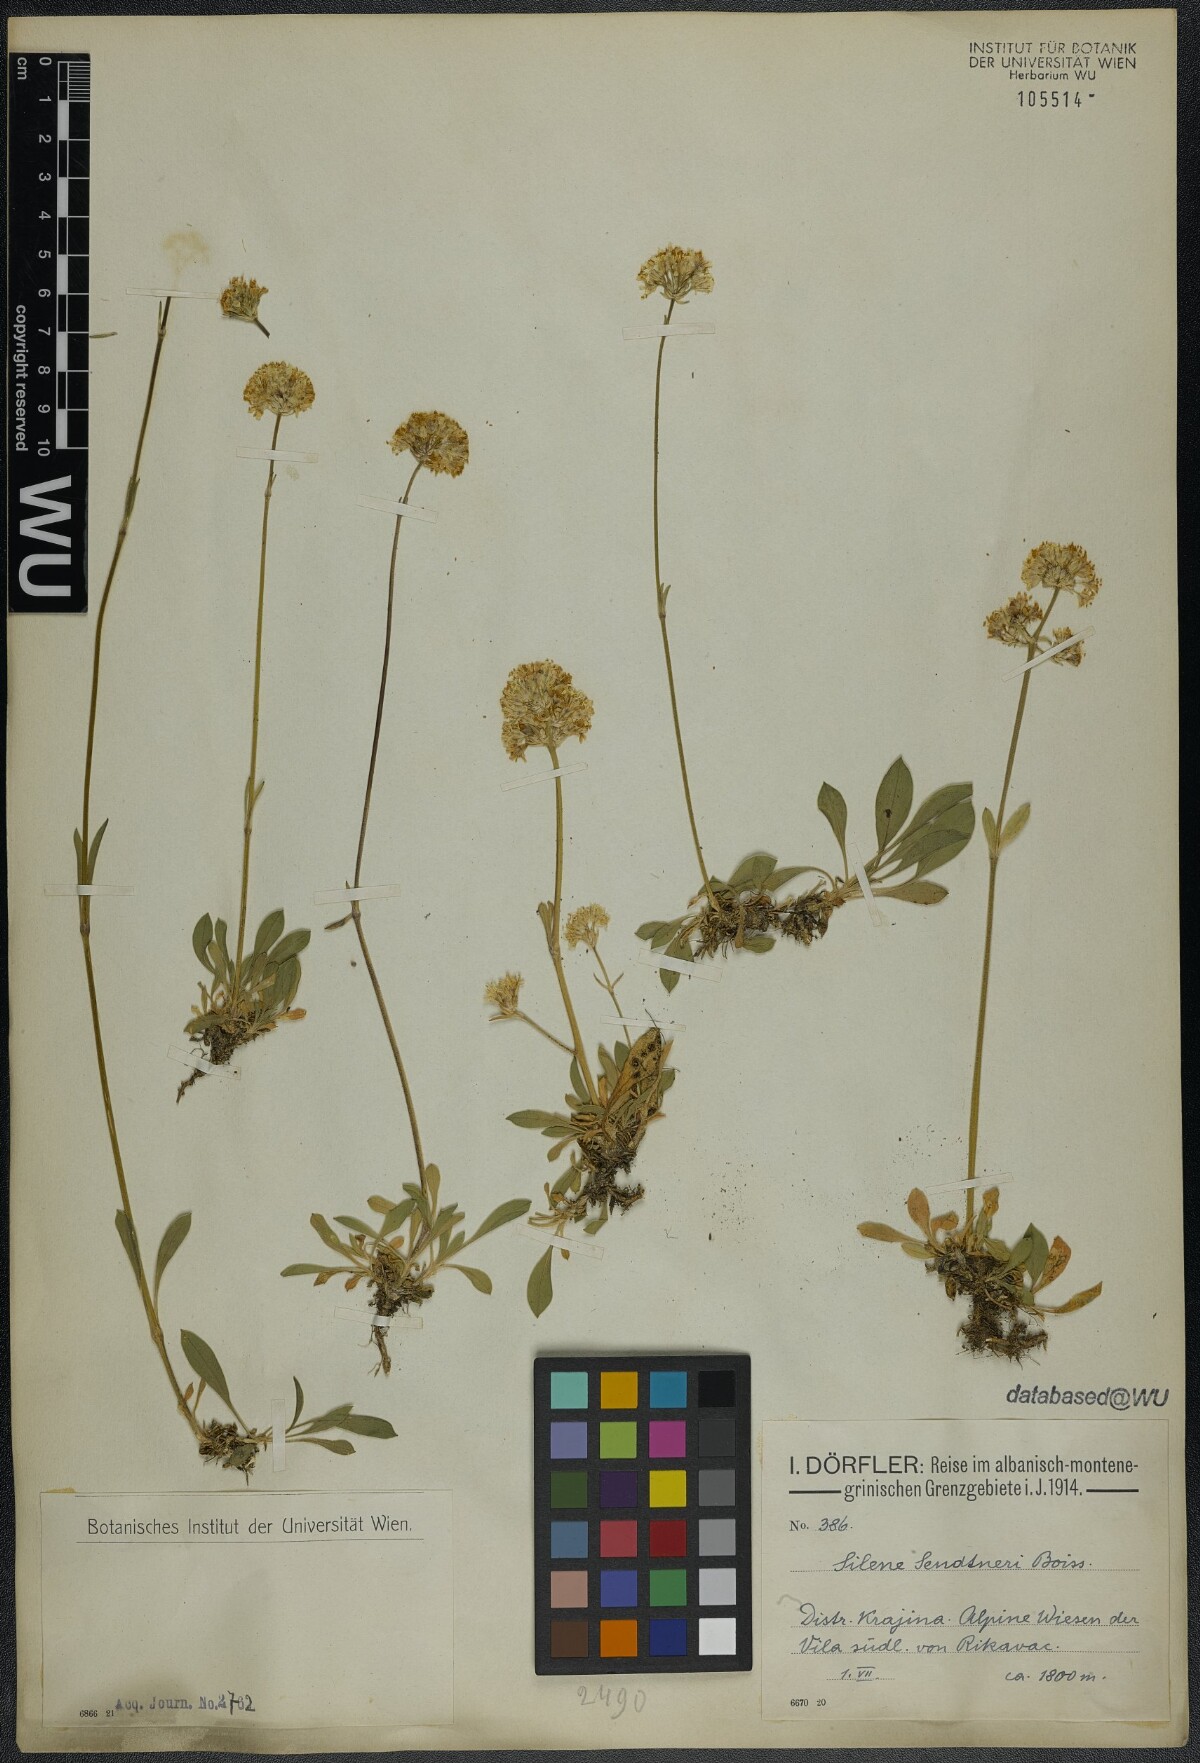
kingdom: Plantae
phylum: Tracheophyta
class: Magnoliopsida
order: Caryophyllales
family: Caryophyllaceae
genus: Silene
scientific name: Silene sendtneri
